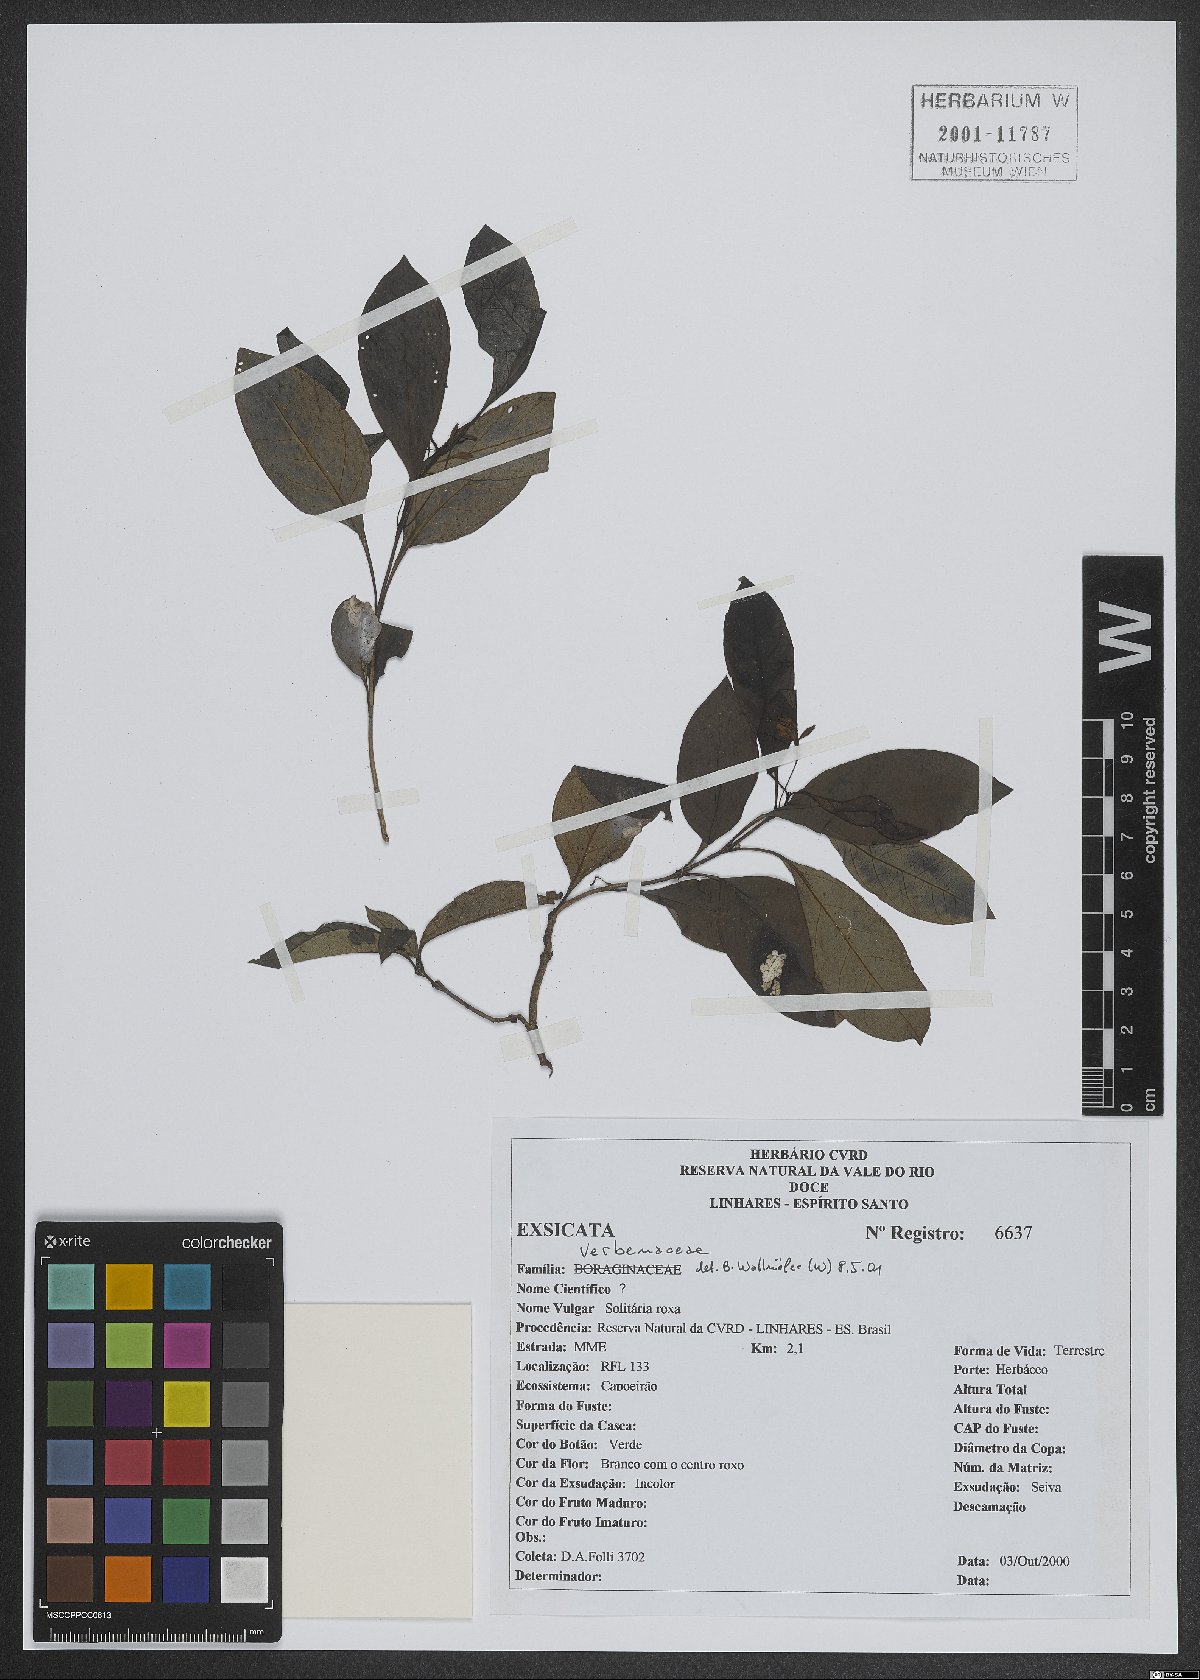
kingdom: Plantae
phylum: Tracheophyta
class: Magnoliopsida
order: Lamiales
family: Verbenaceae
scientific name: Verbenaceae
